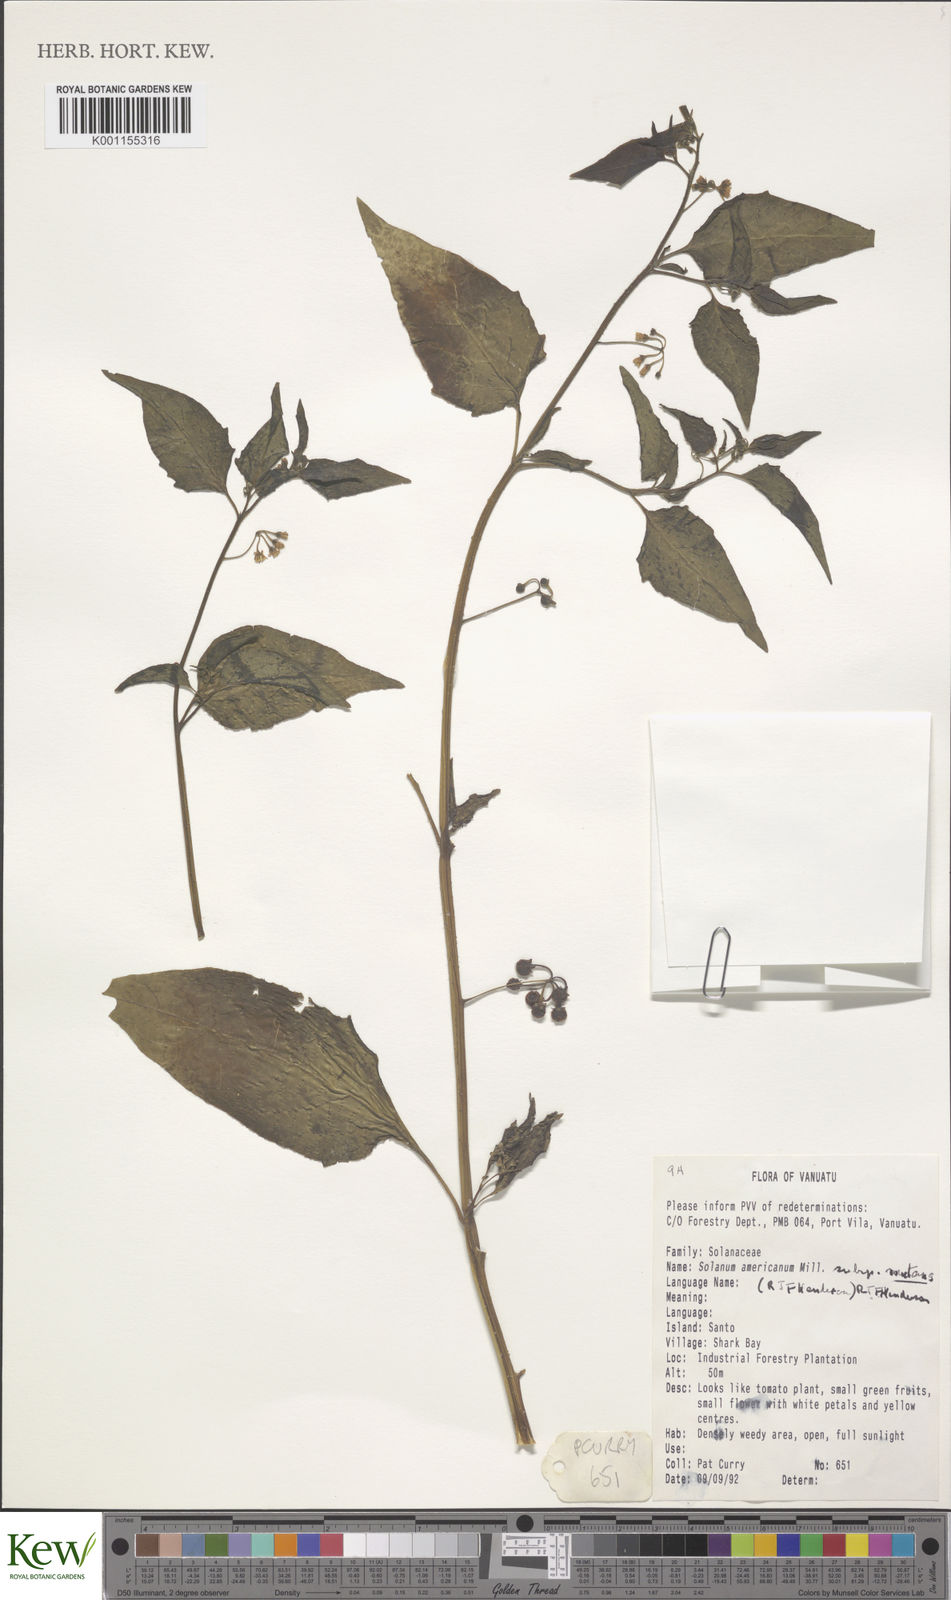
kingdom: Plantae
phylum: Tracheophyta
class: Magnoliopsida
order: Solanales
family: Solanaceae
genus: Solanum
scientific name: Solanum
